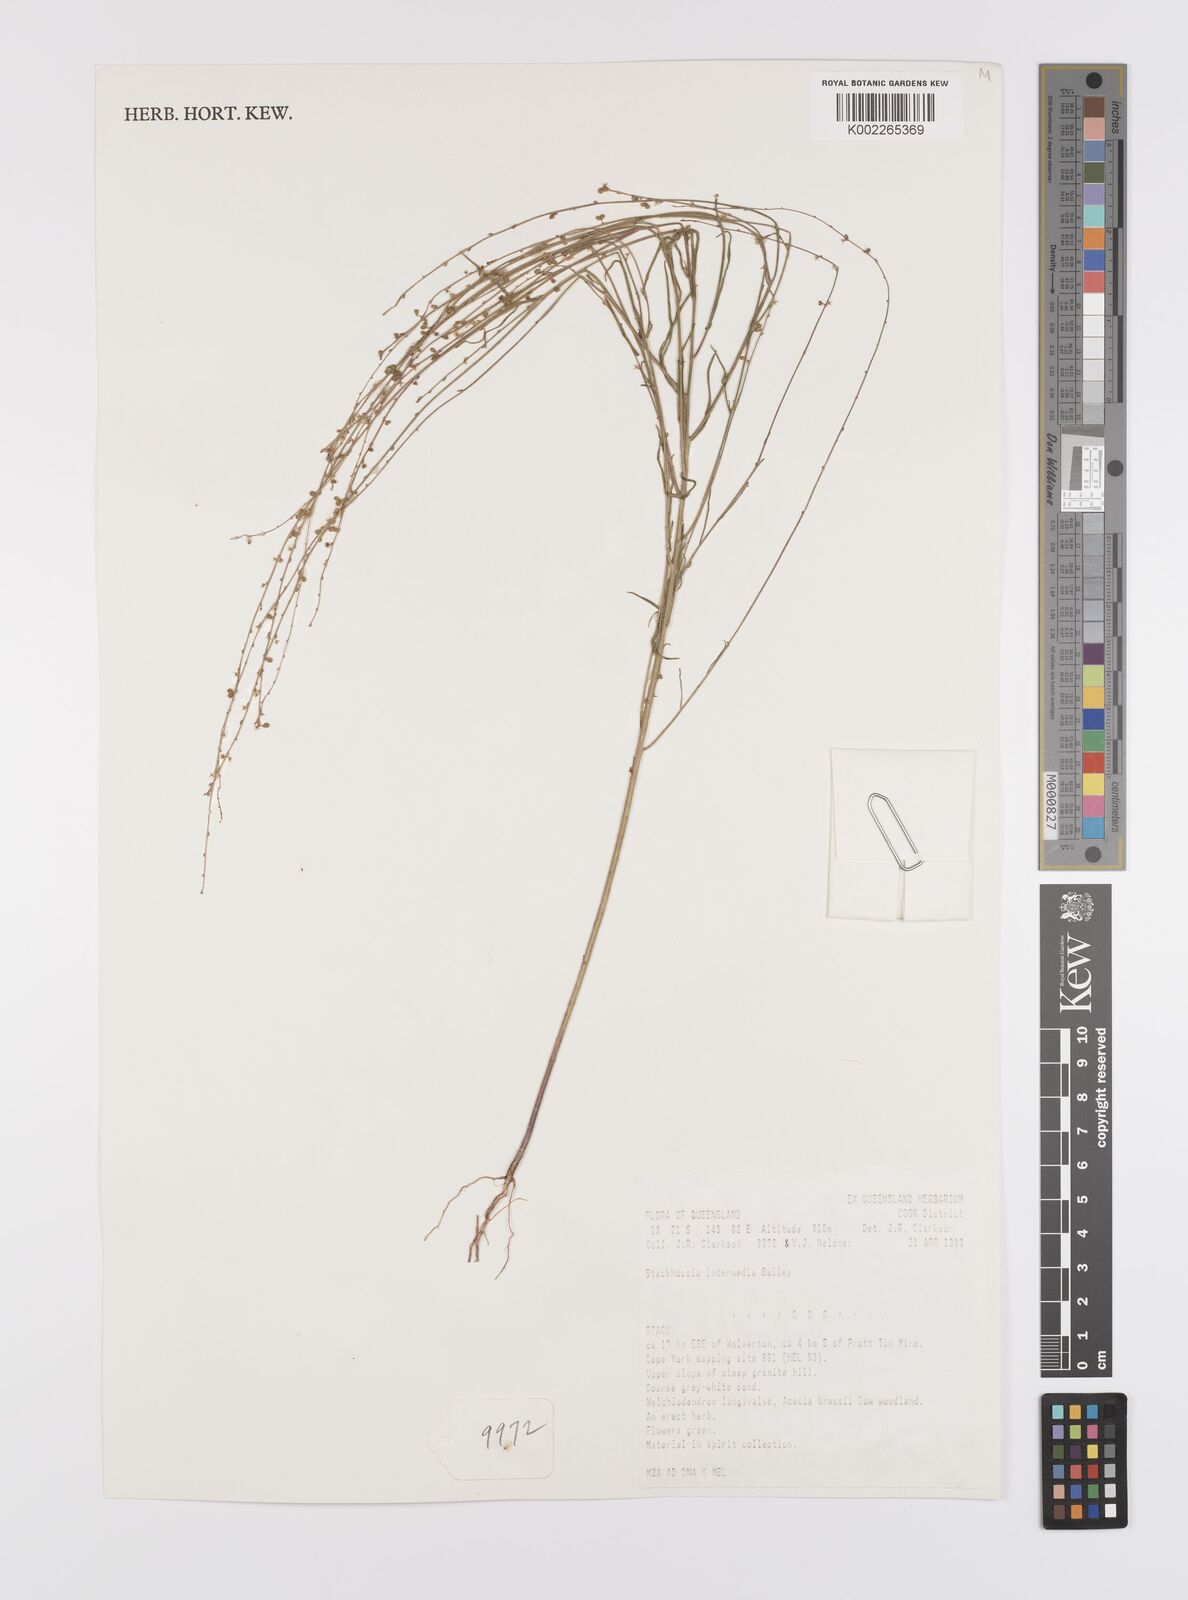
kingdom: Plantae
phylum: Tracheophyta
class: Magnoliopsida
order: Celastrales
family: Celastraceae
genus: Stackhousia
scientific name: Stackhousia intermedia
